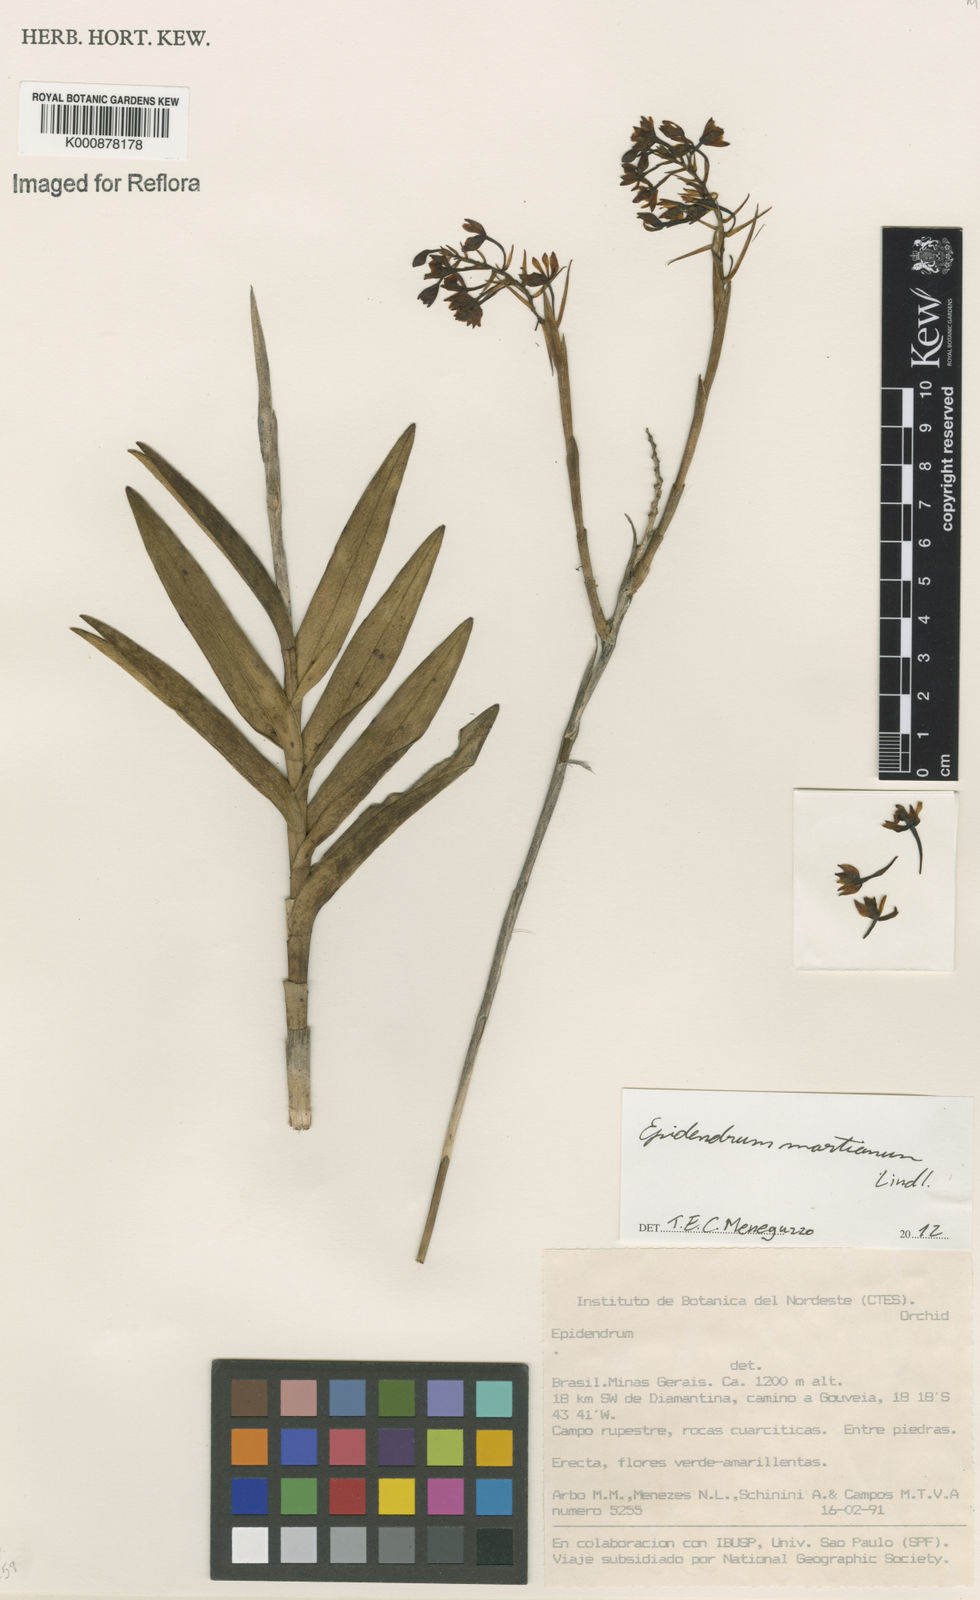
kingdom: Plantae
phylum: Tracheophyta
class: Liliopsida
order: Asparagales
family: Orchidaceae
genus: Epidendrum
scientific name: Epidendrum martianum
